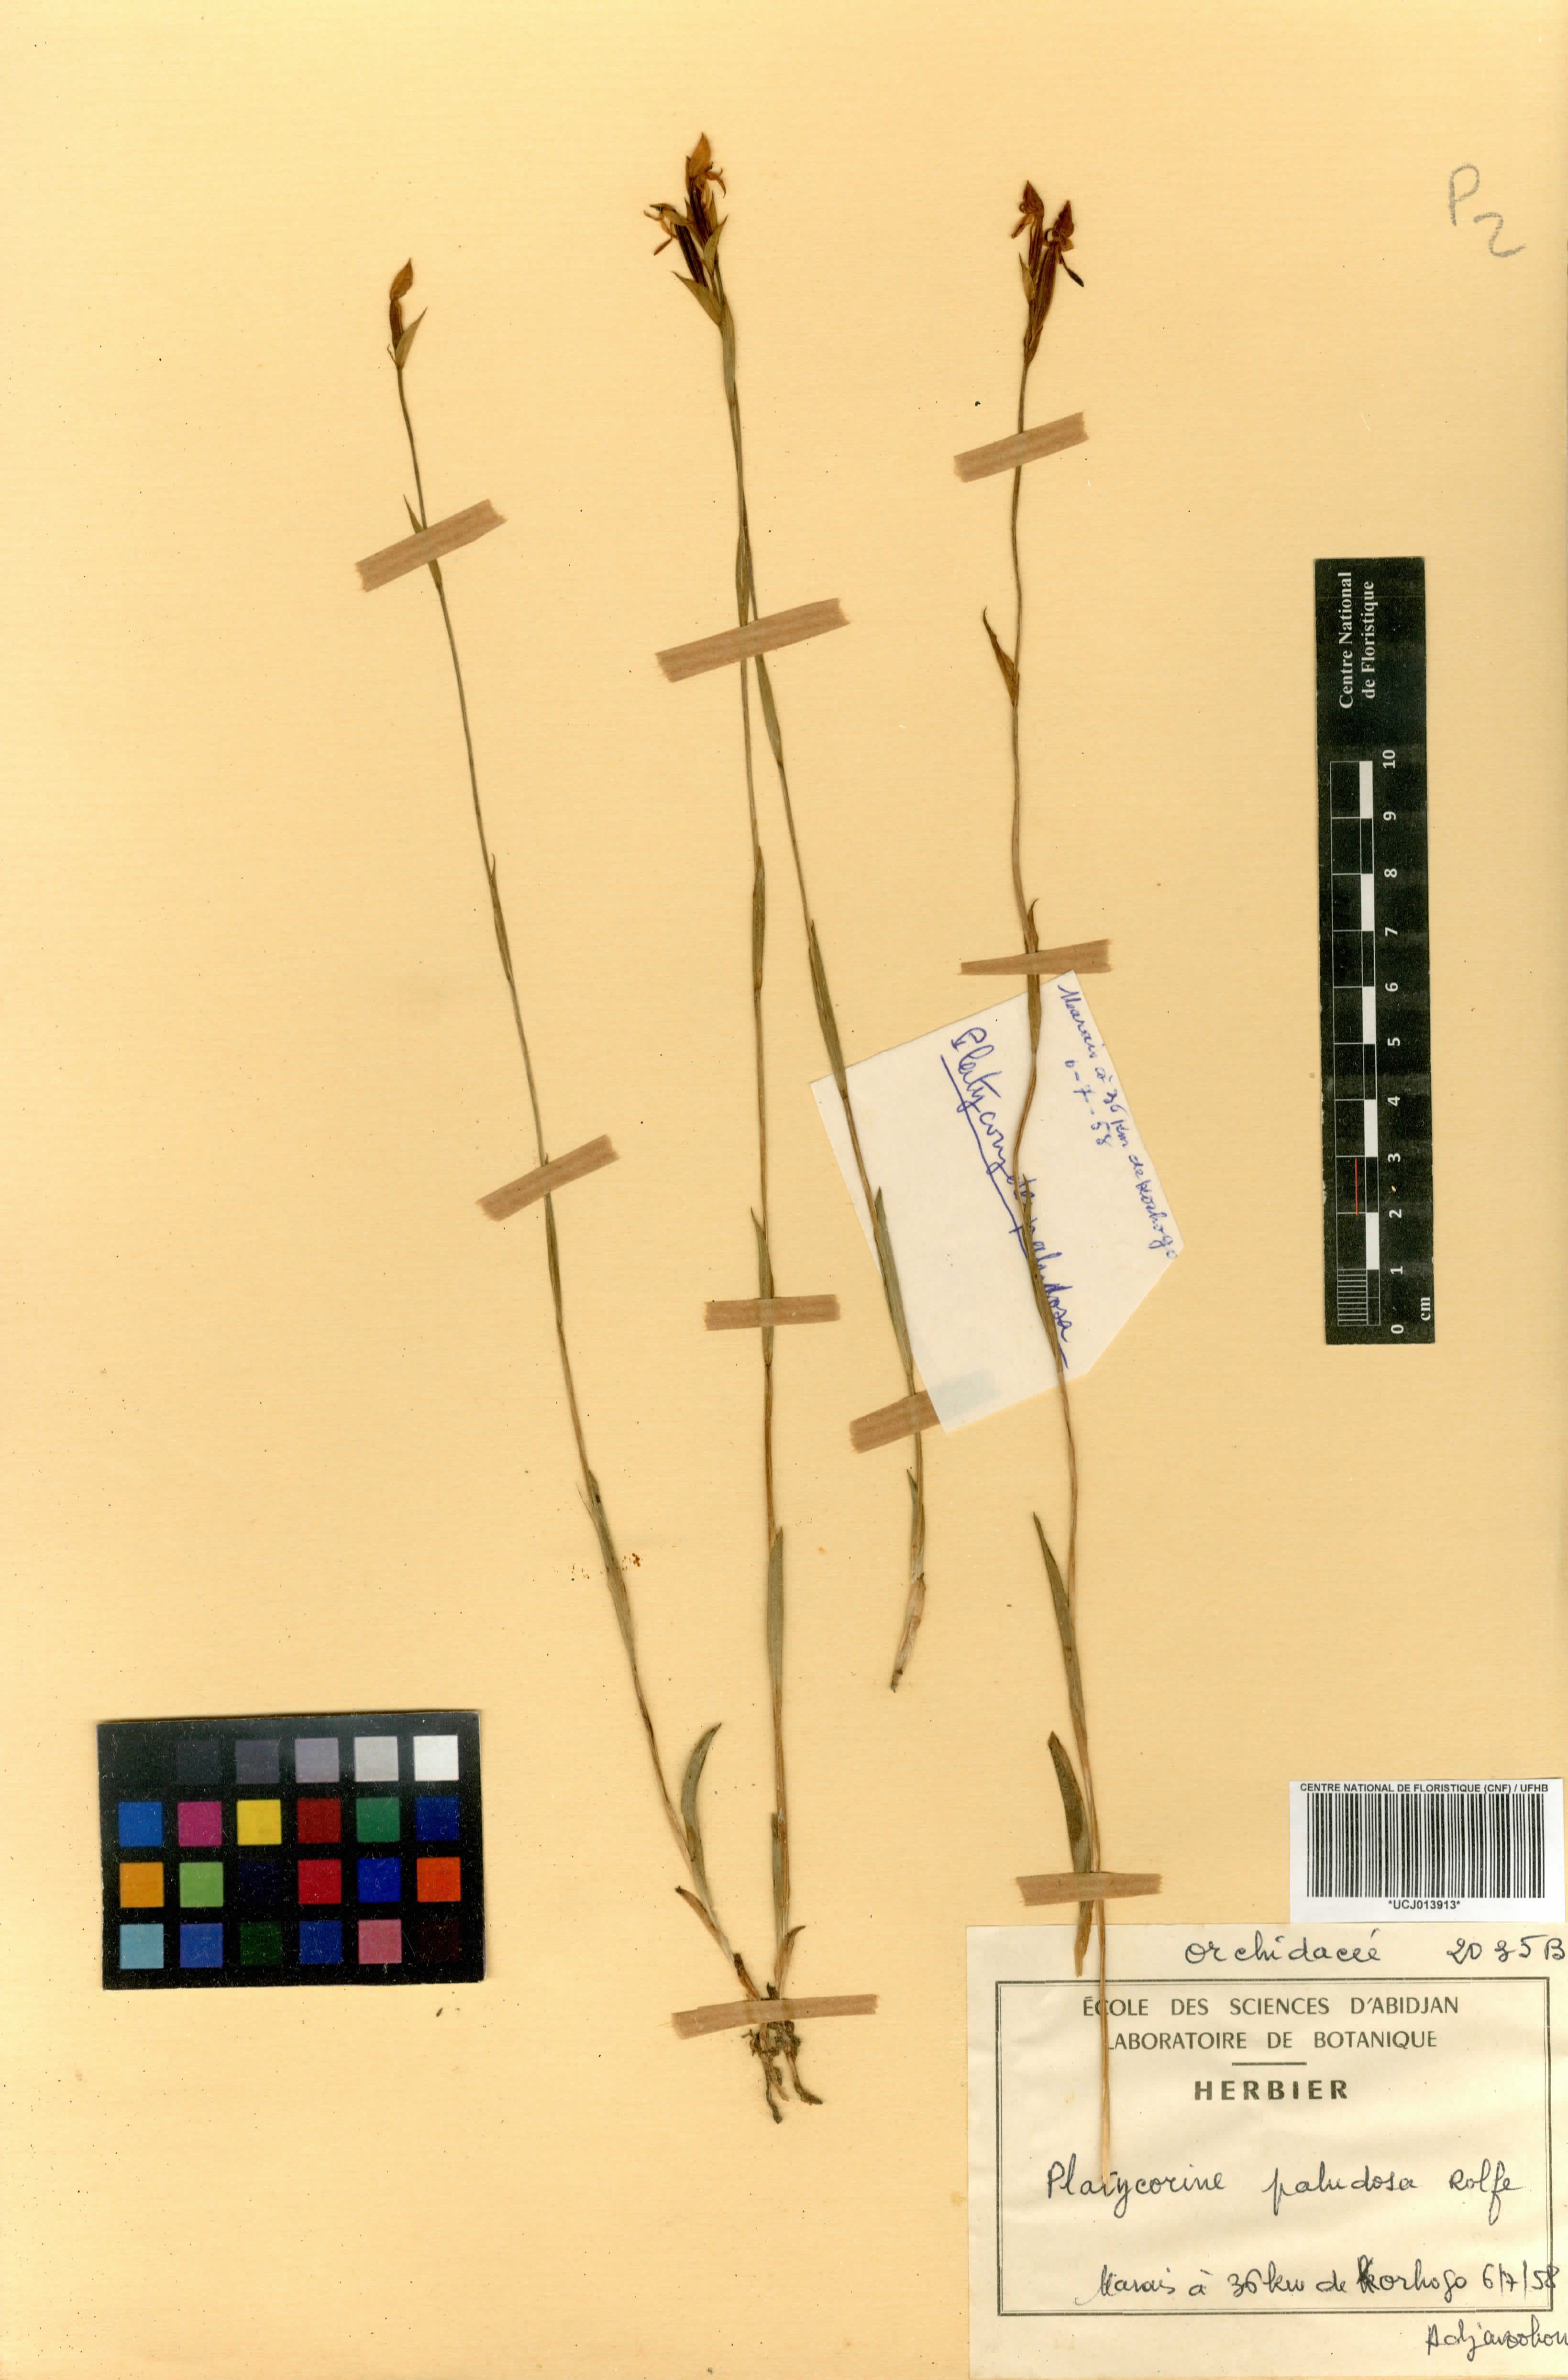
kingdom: Plantae
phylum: Tracheophyta
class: Liliopsida
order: Asparagales
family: Orchidaceae
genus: Platycoryne
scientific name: Platycoryne paludosa
